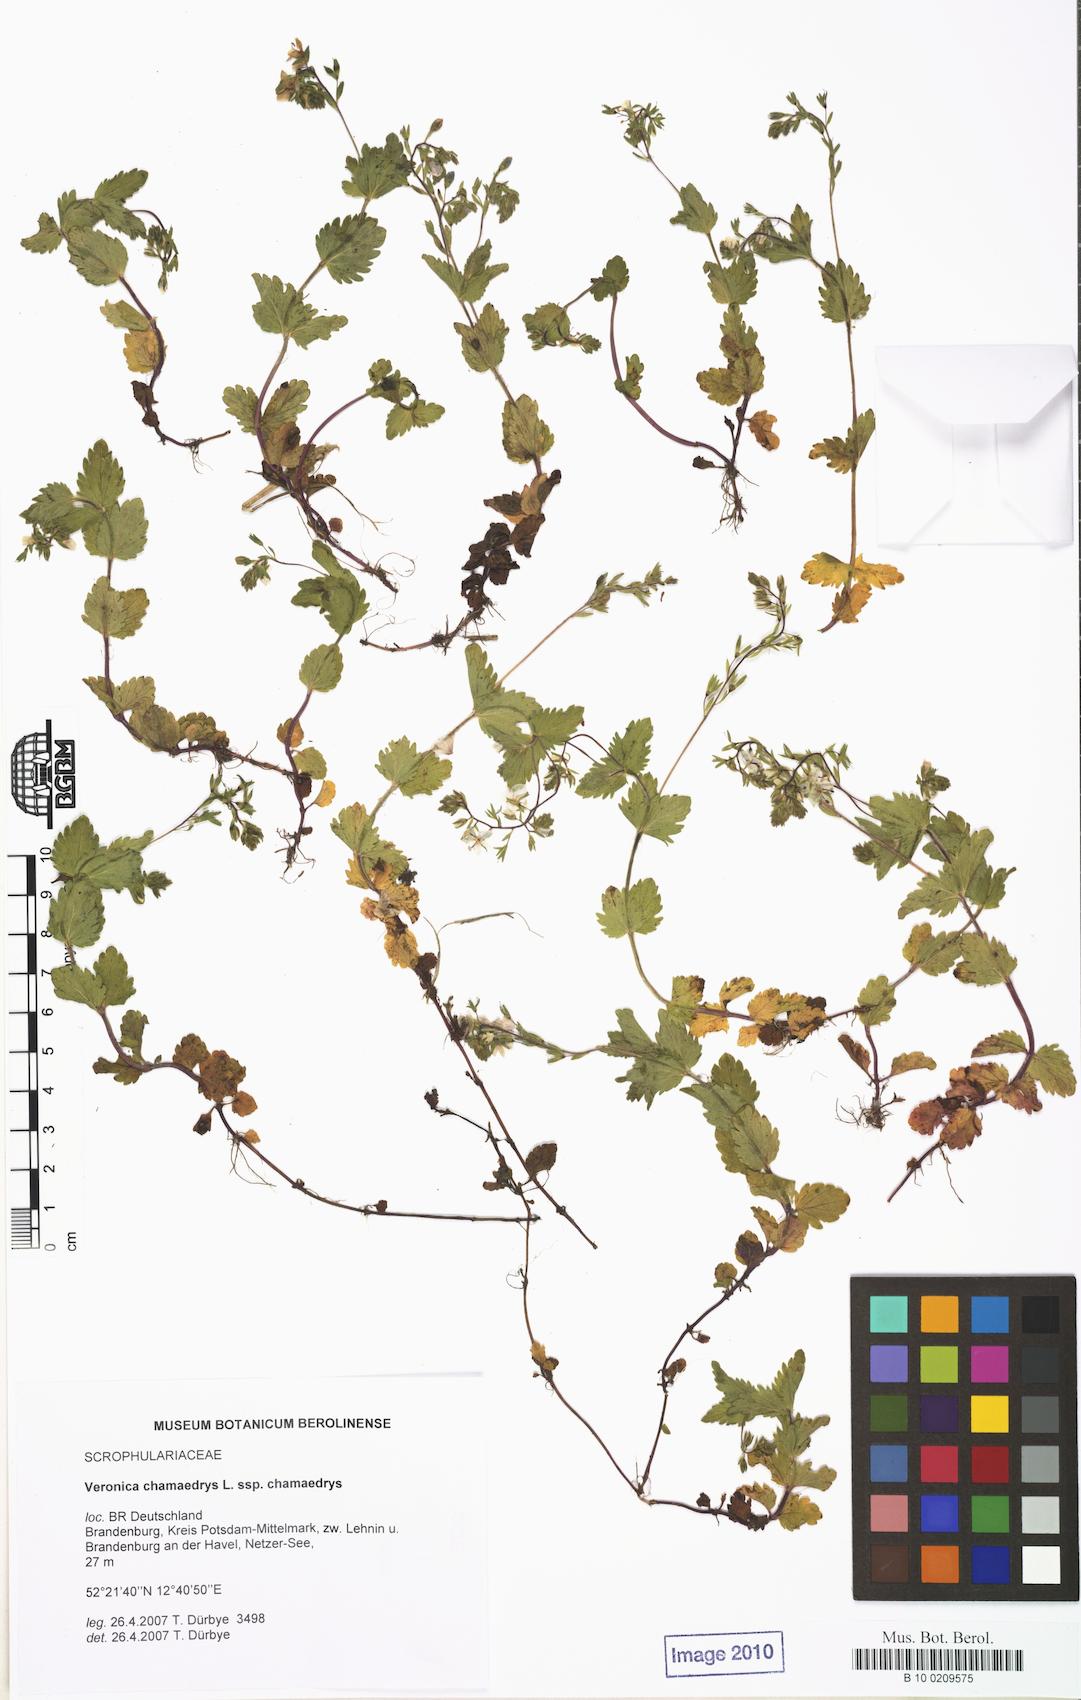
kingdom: Plantae
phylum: Tracheophyta
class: Magnoliopsida
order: Lamiales
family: Plantaginaceae
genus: Veronica
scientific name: Veronica chamaedrys
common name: Germander speedwell
